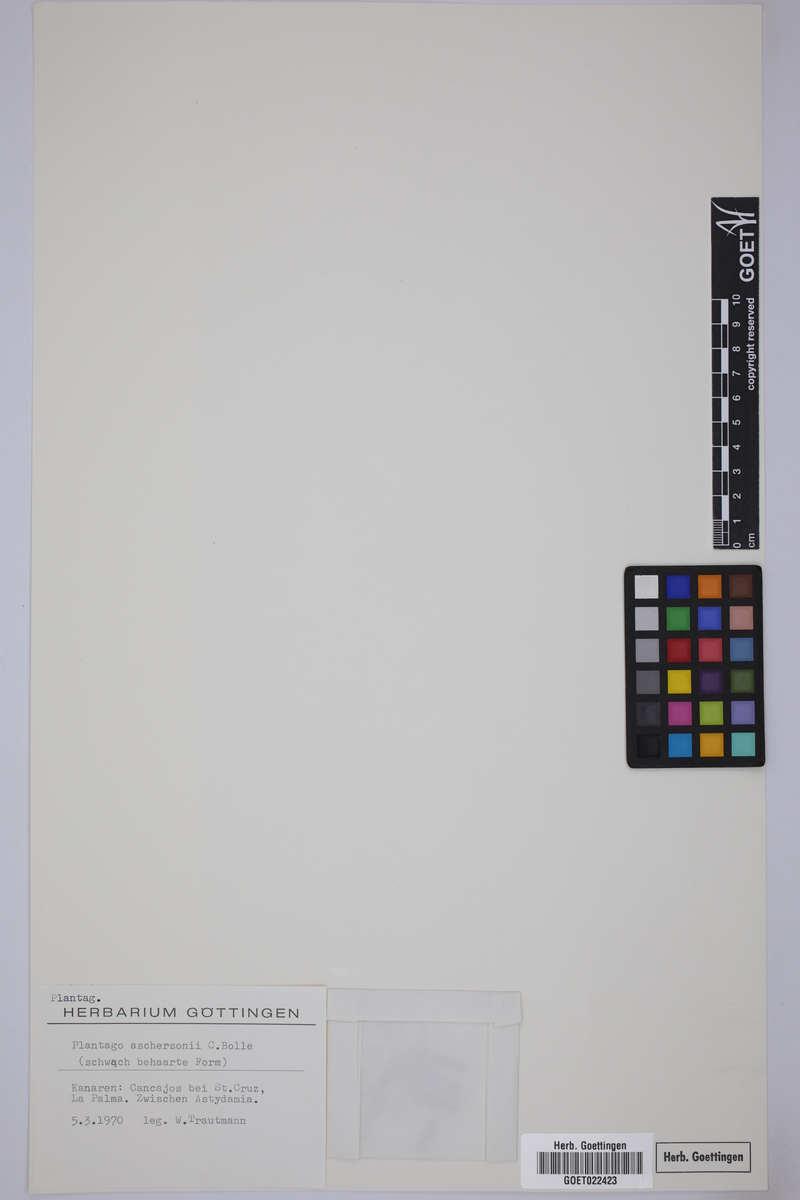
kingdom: Plantae
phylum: Tracheophyta
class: Magnoliopsida
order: Lamiales
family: Plantaginaceae
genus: Plantago
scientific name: Plantago coronopus
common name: Buck's-horn plantain
